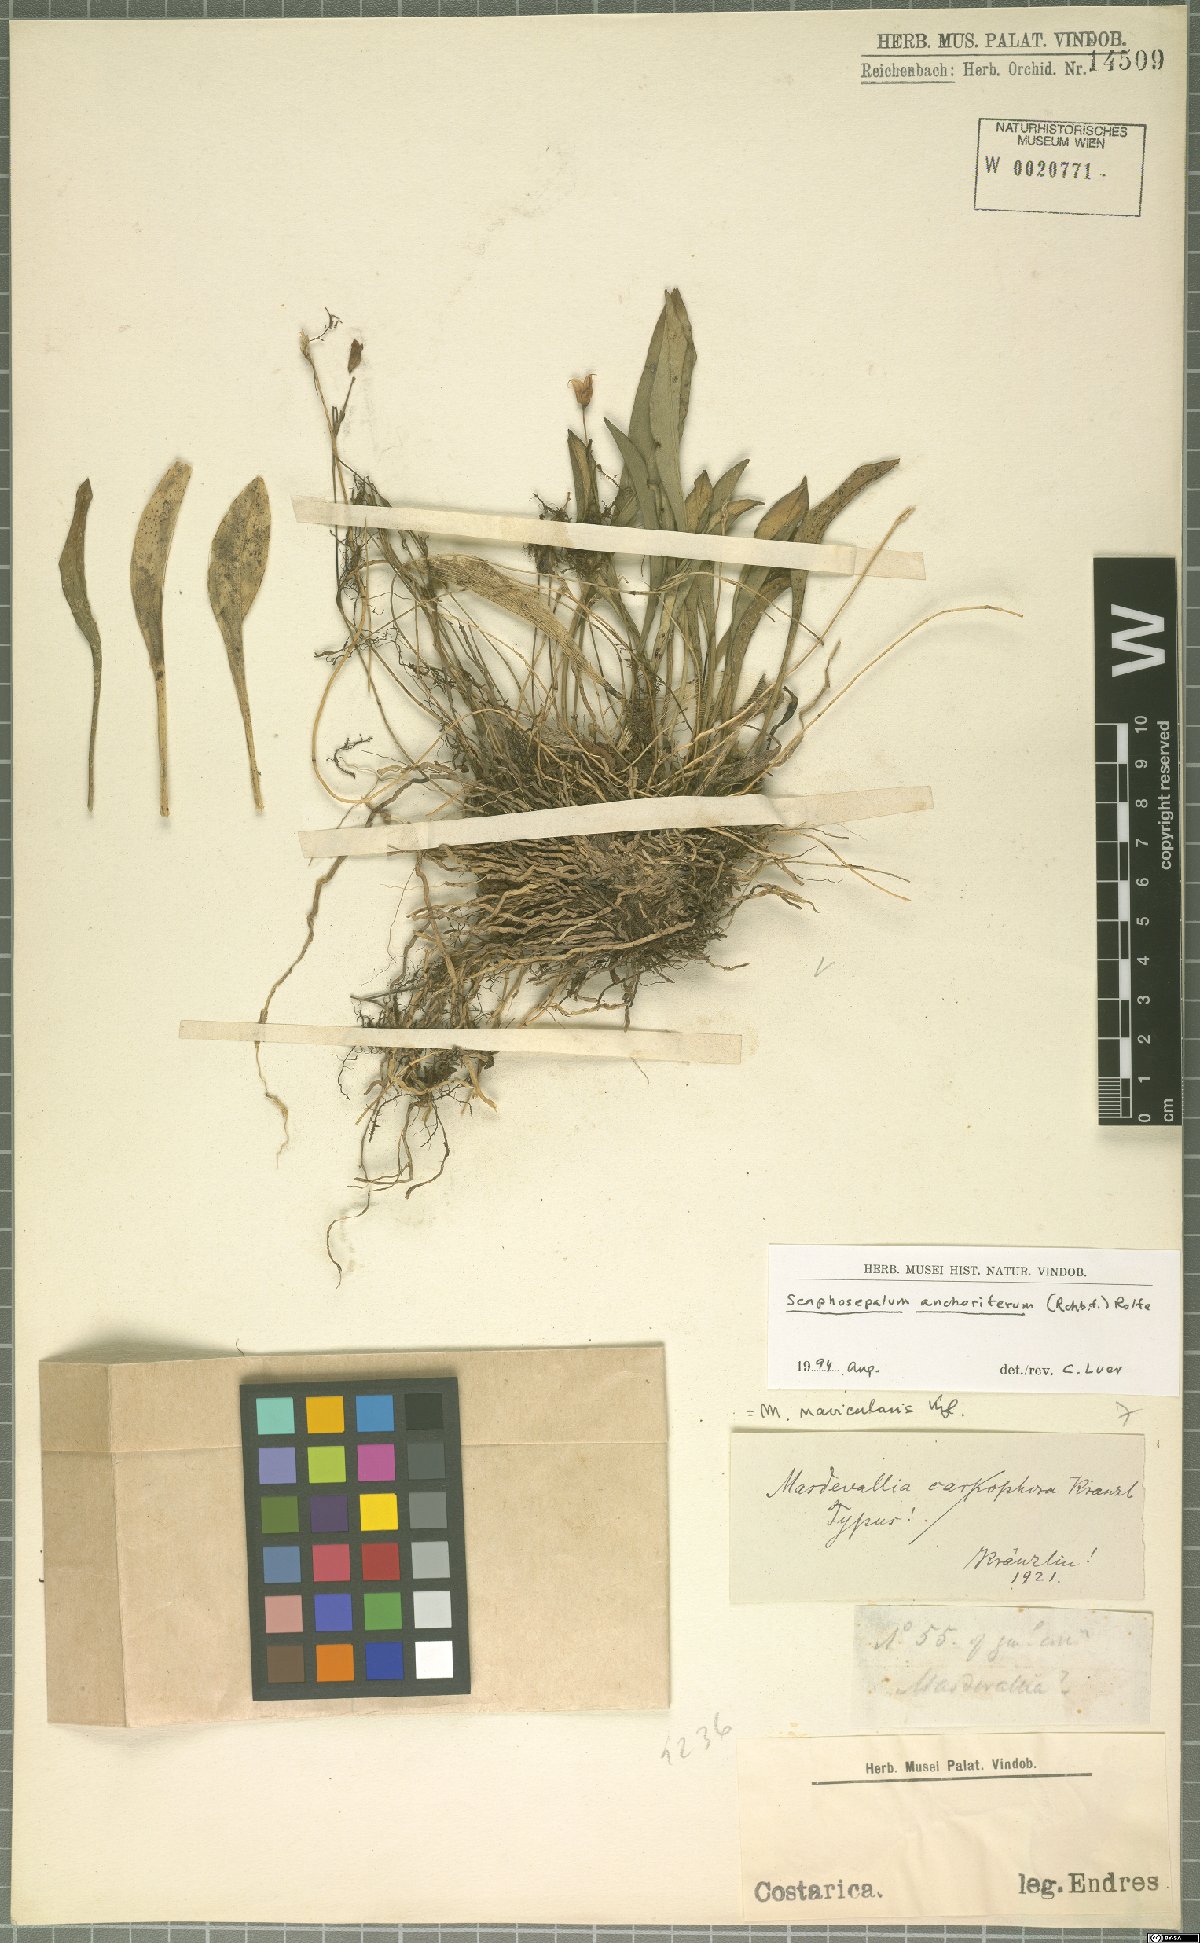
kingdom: Plantae
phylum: Tracheophyta
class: Liliopsida
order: Asparagales
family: Orchidaceae
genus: Scaphosepalum
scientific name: Scaphosepalum anchoriferum
